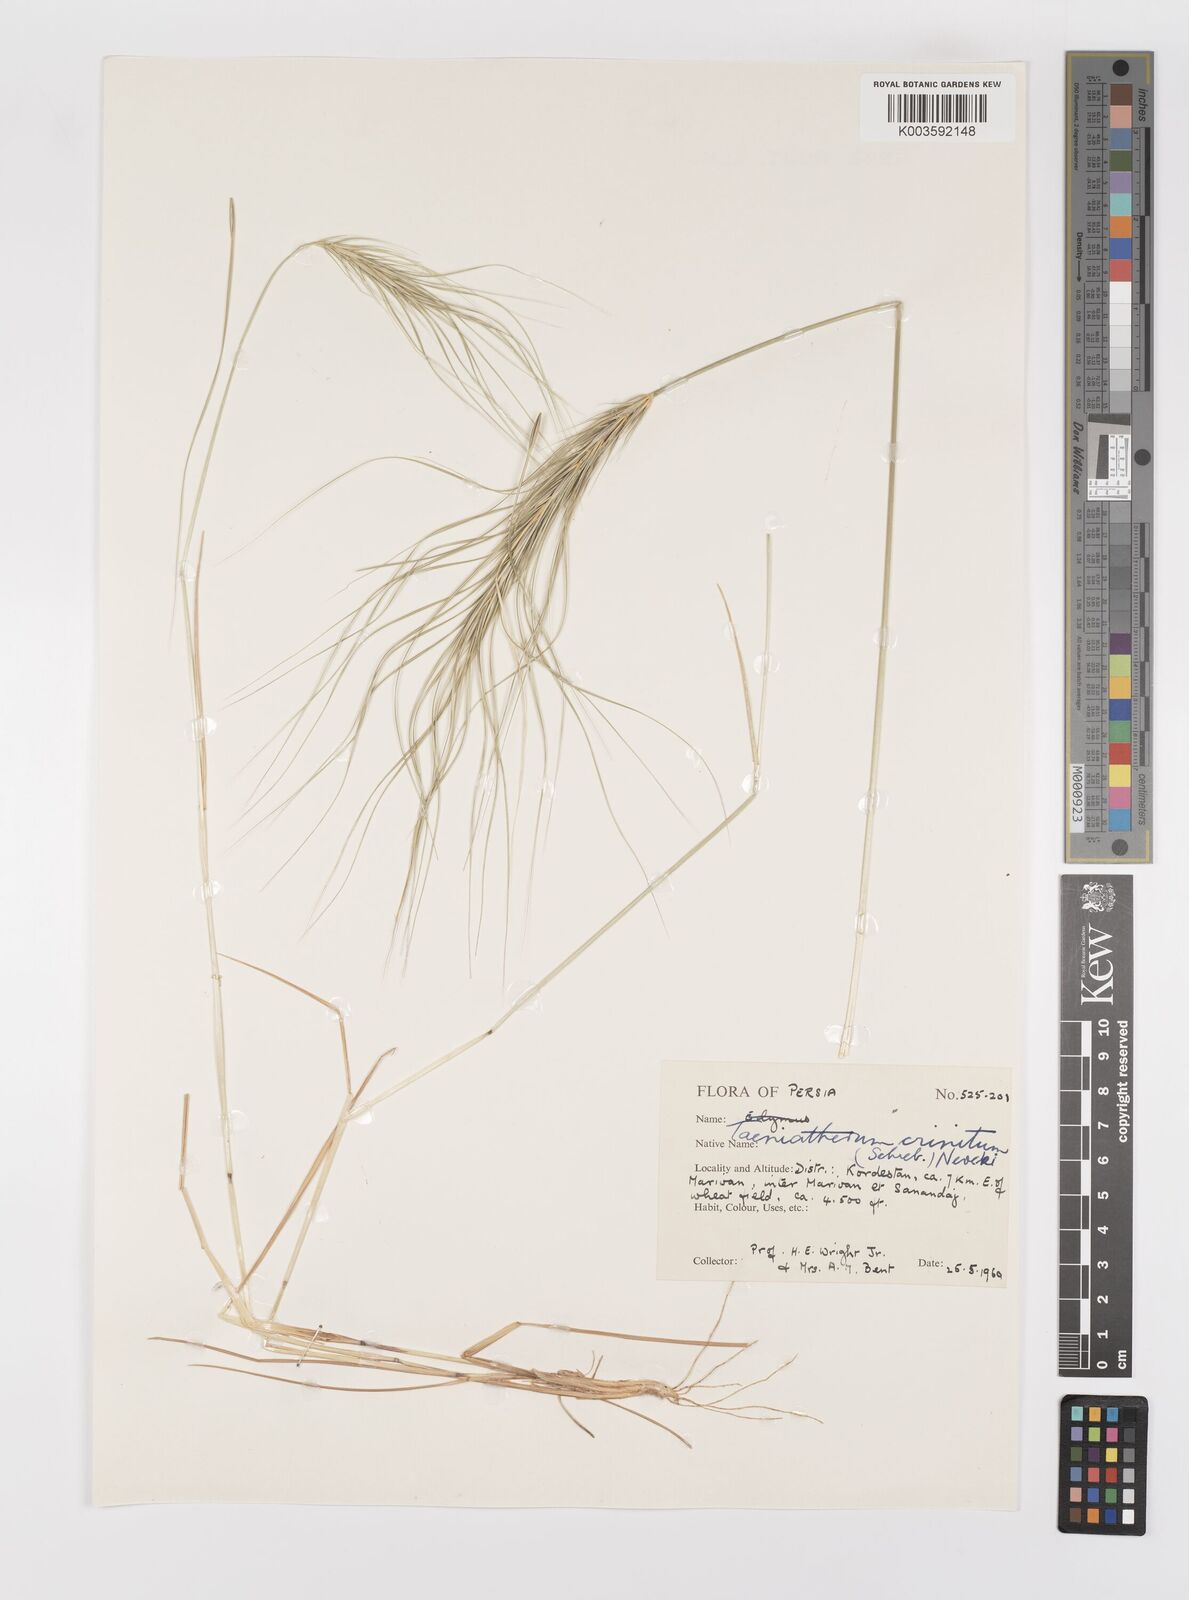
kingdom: Plantae
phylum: Tracheophyta
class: Liliopsida
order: Poales
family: Poaceae
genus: Taeniatherum
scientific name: Taeniatherum caput-medusae
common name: Medusahead
